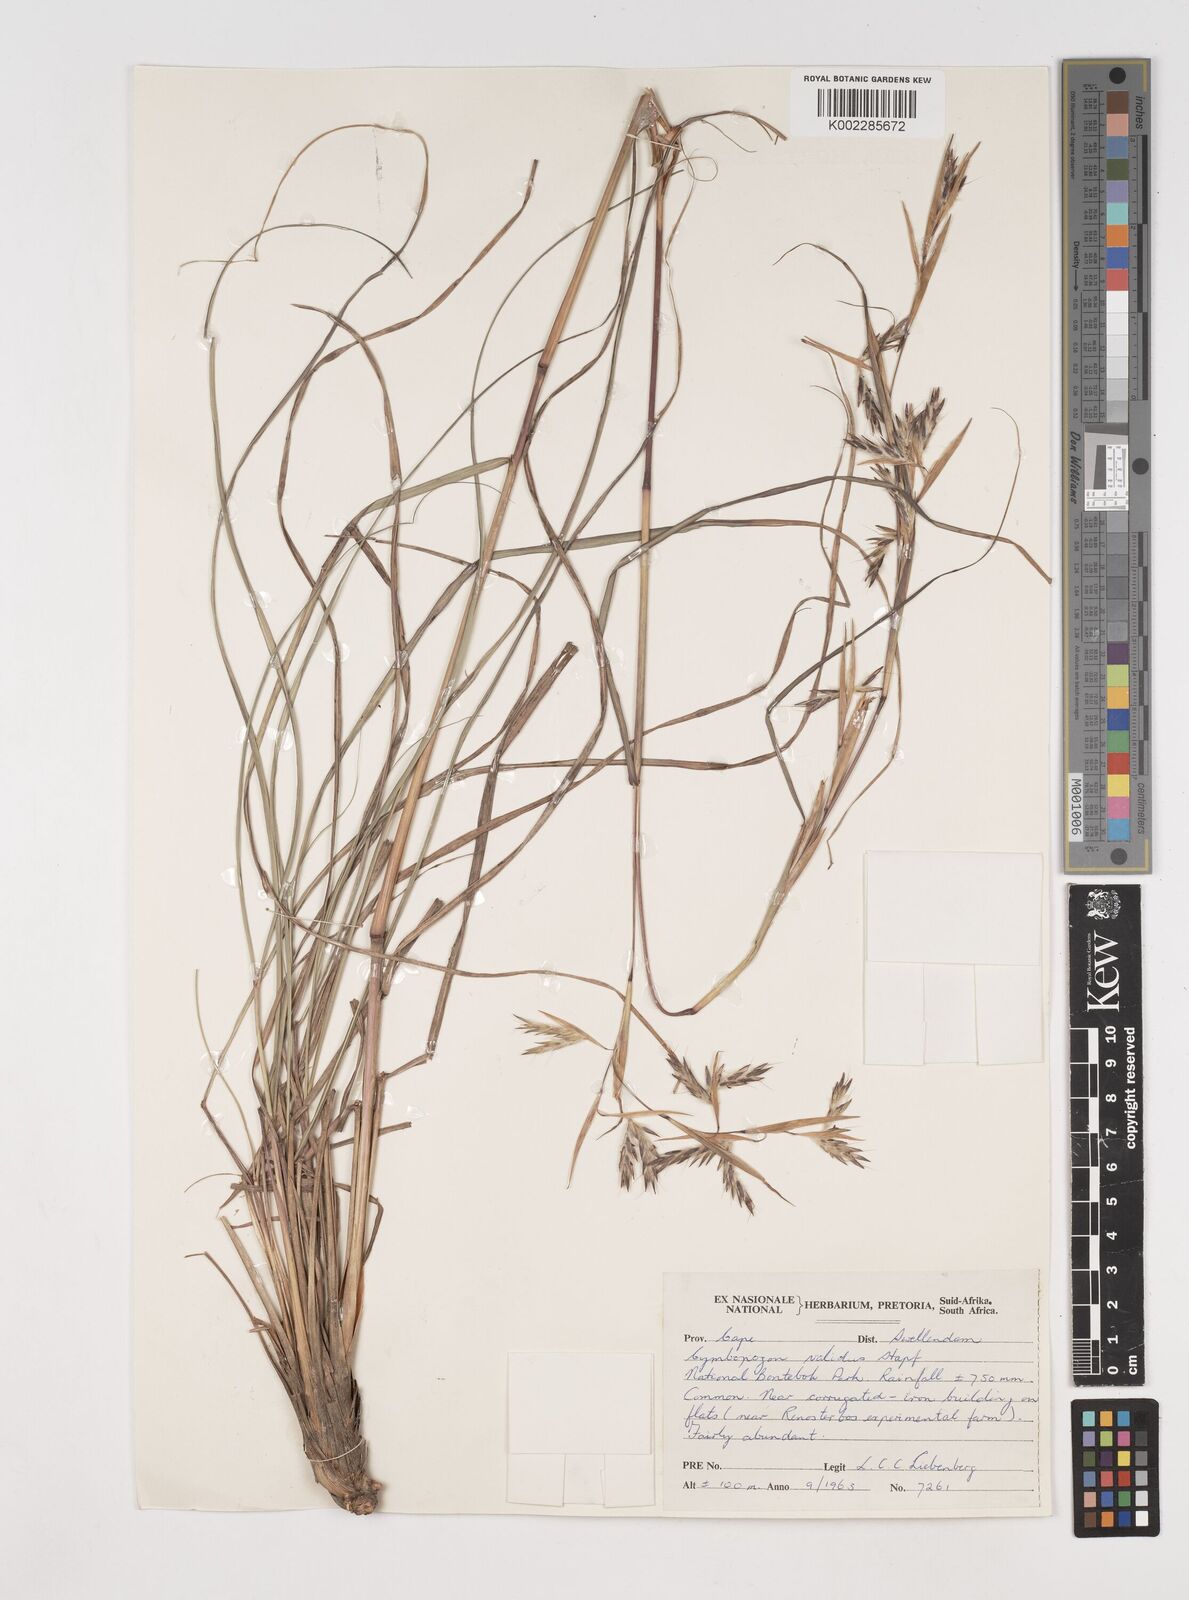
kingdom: Plantae
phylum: Tracheophyta
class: Liliopsida
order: Poales
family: Poaceae
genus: Cymbopogon
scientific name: Cymbopogon marginatus
